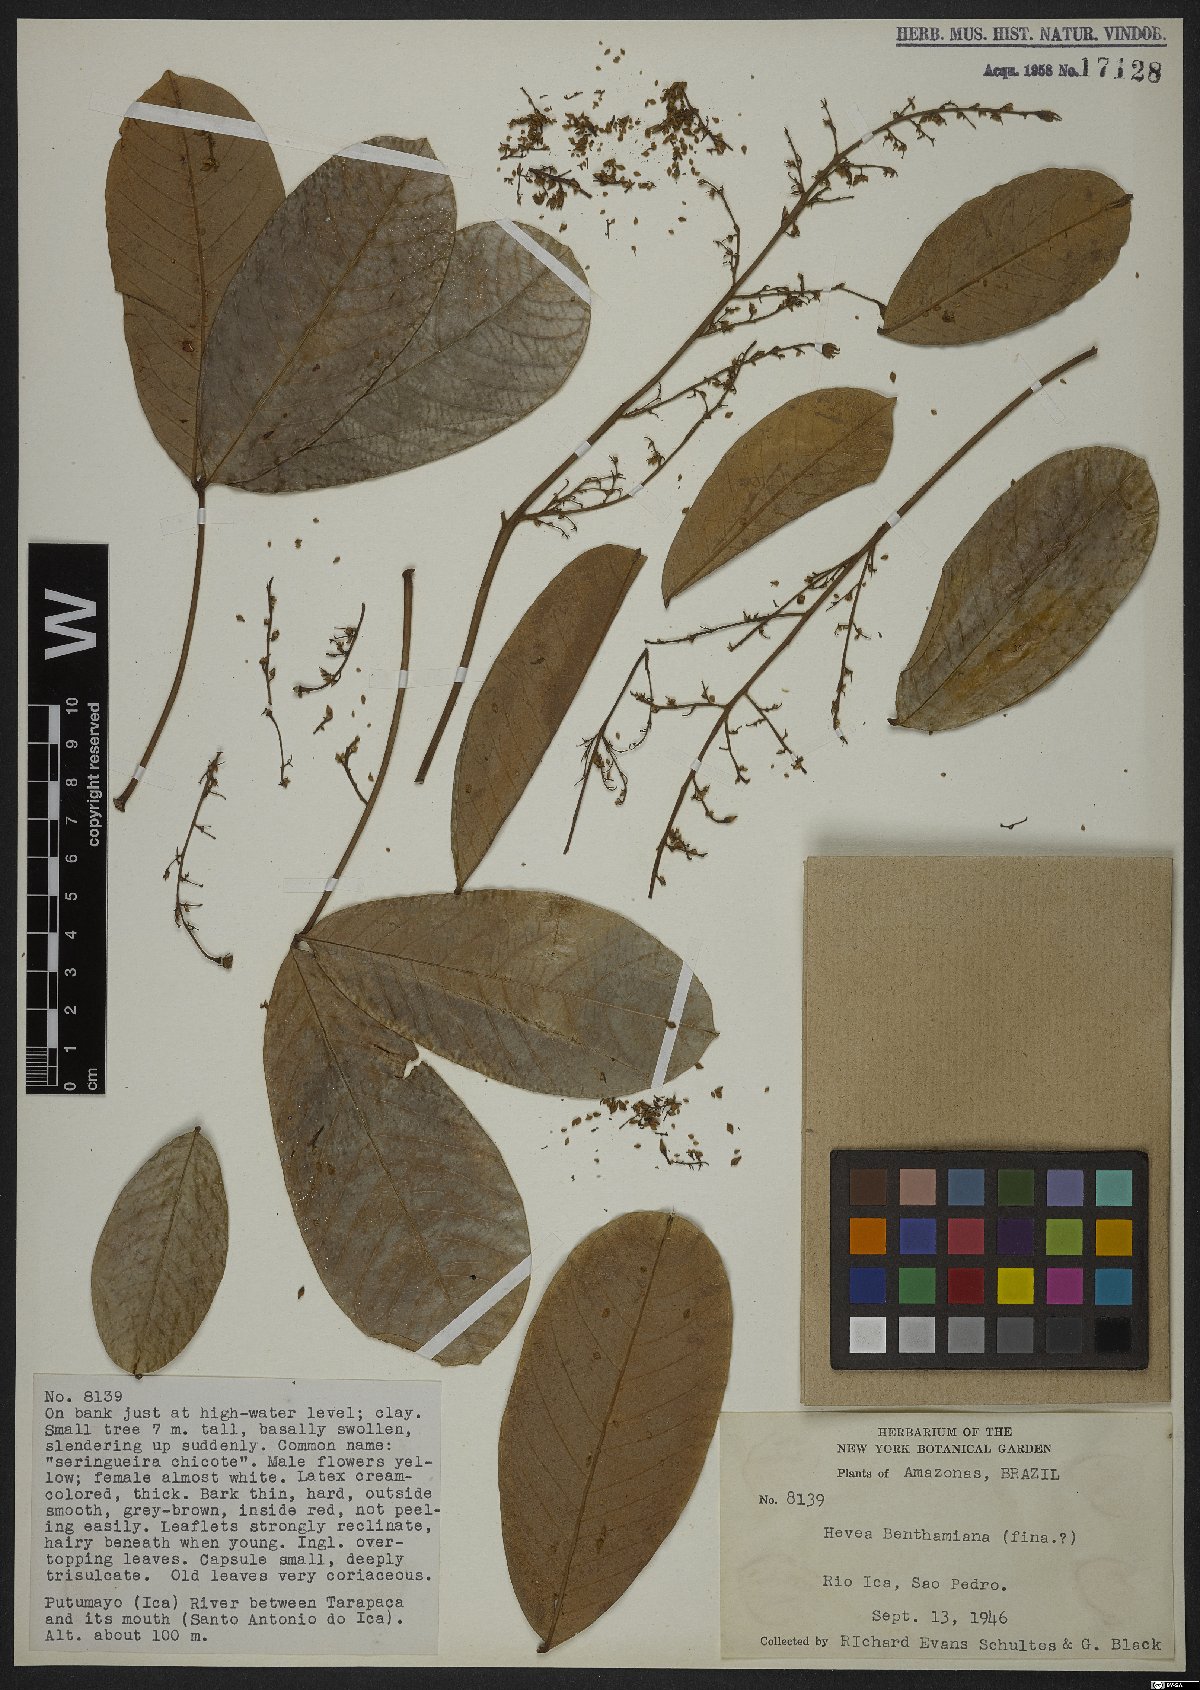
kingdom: Plantae
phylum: Tracheophyta
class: Magnoliopsida
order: Malpighiales
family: Euphorbiaceae
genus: Hevea
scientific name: Hevea benthamiana
